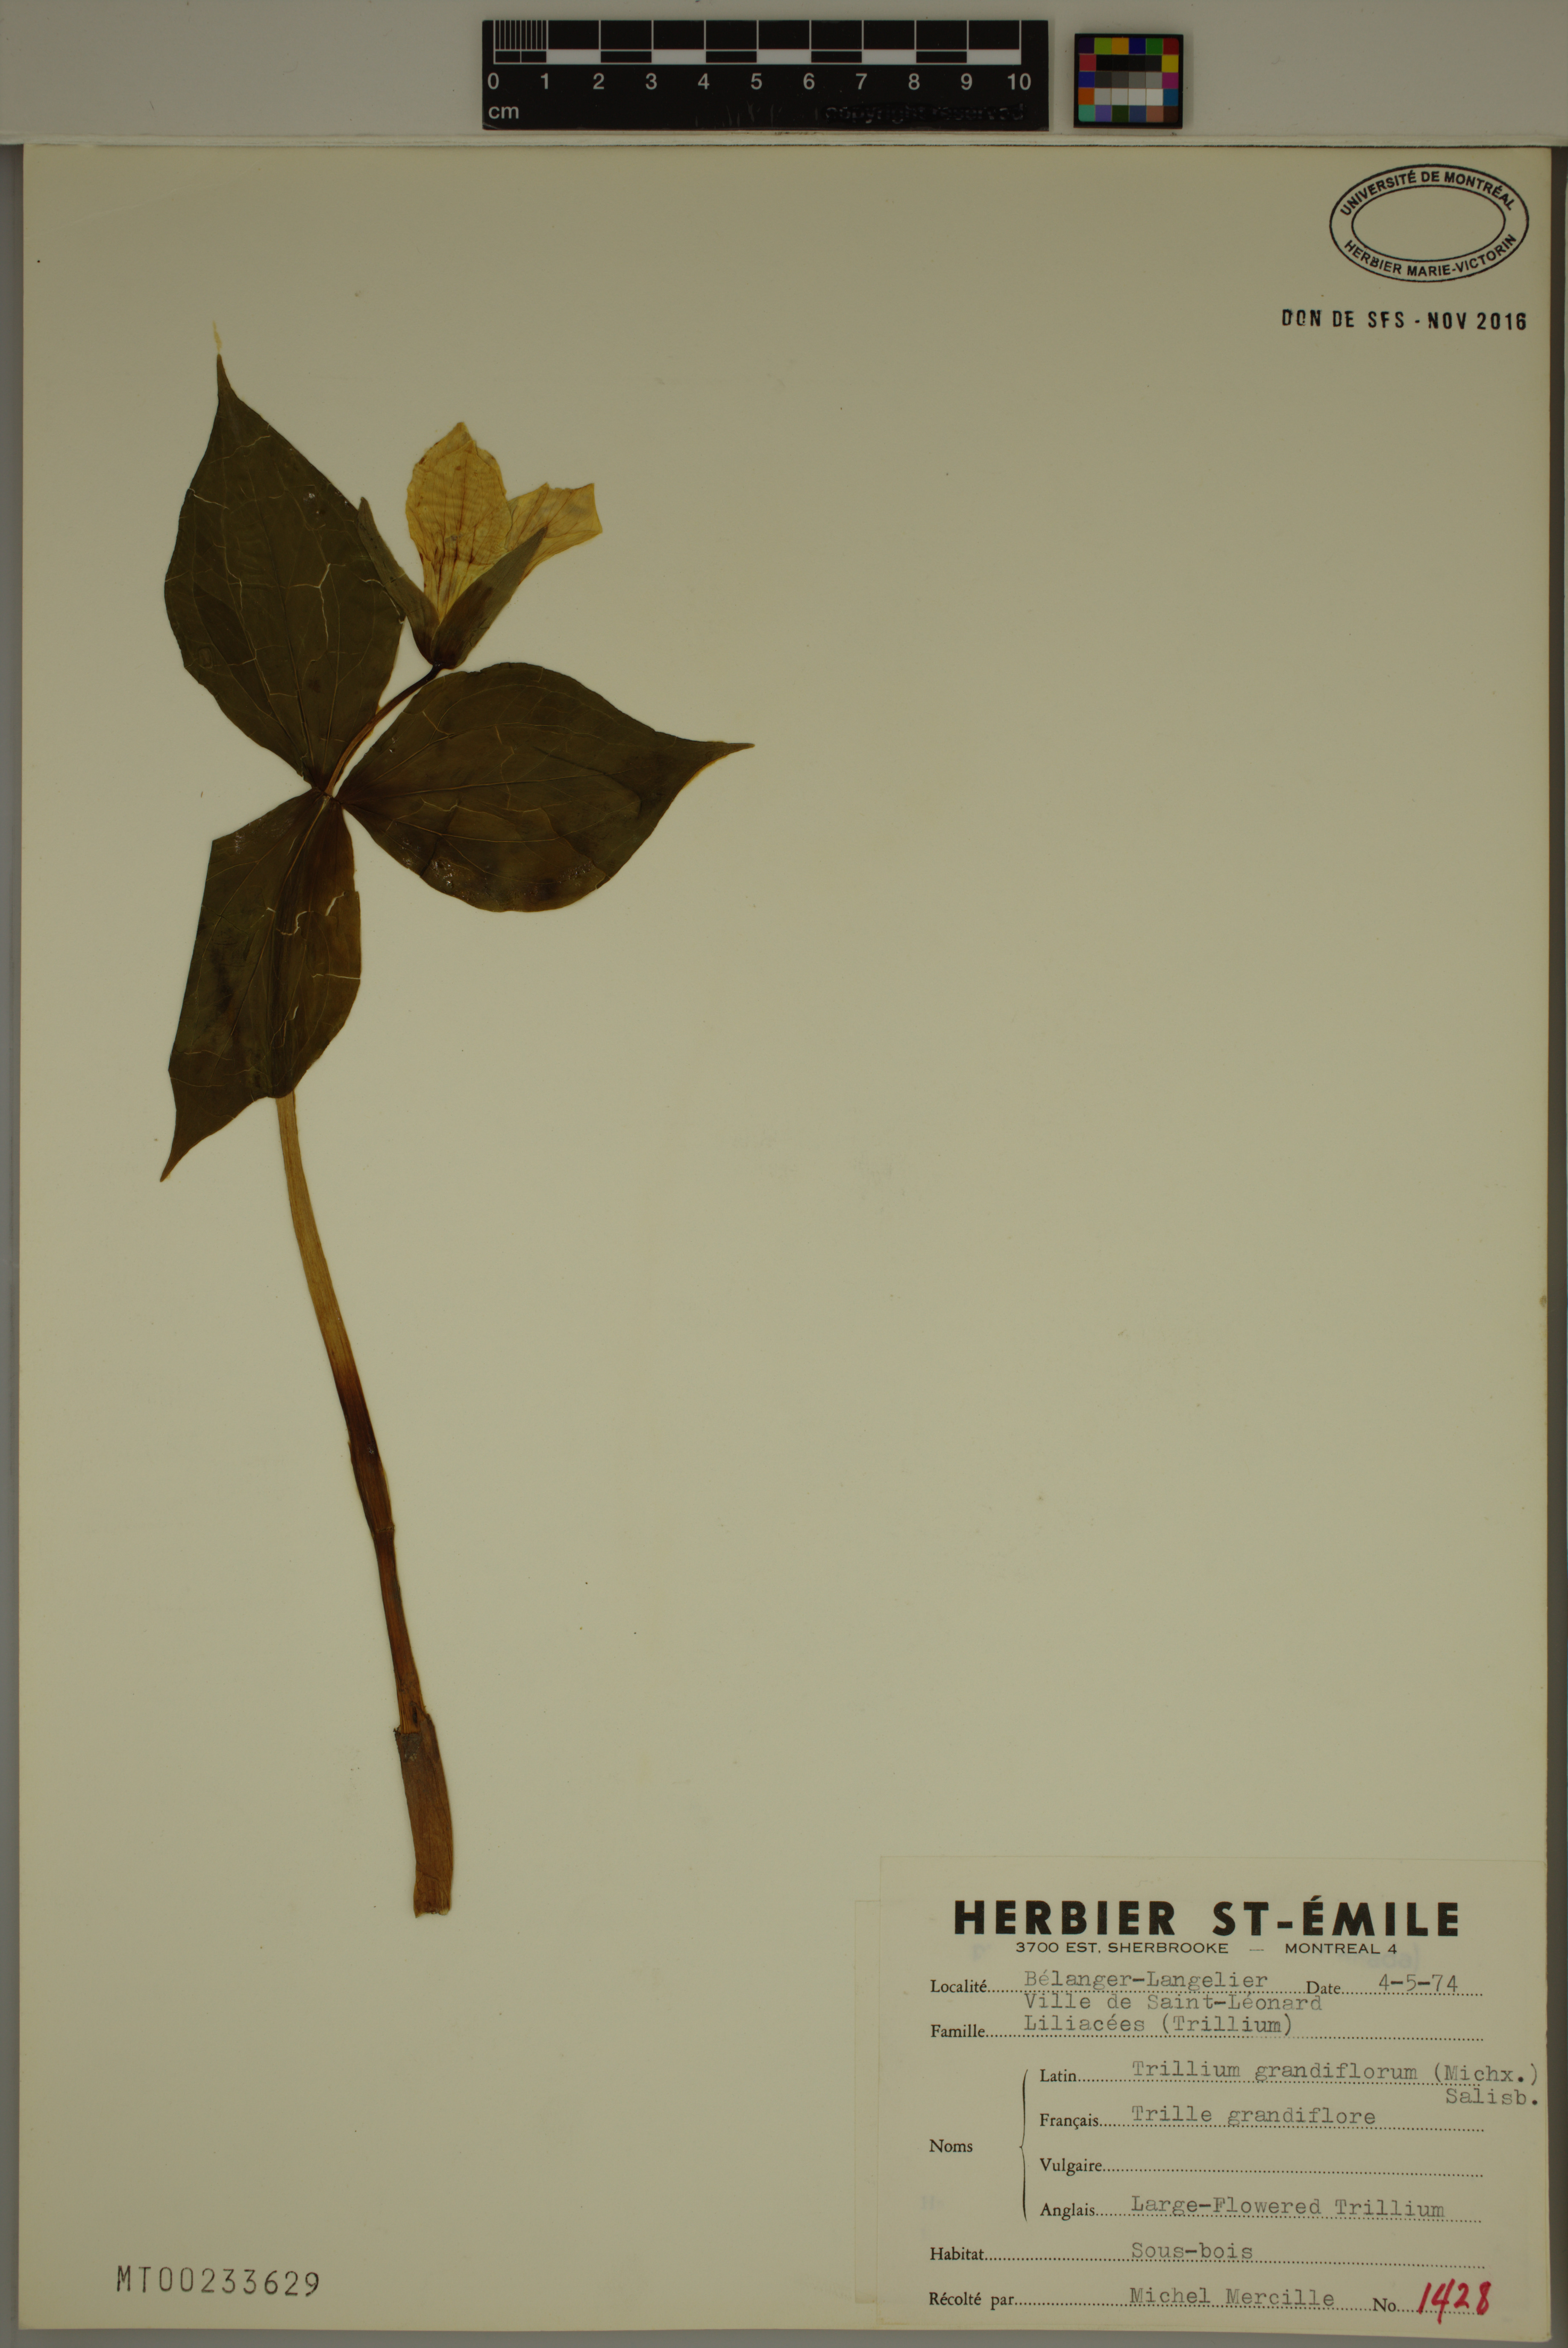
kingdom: Plantae
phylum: Tracheophyta
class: Liliopsida
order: Liliales
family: Melanthiaceae
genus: Trillium
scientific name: Trillium grandiflorum
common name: Great white trillium
